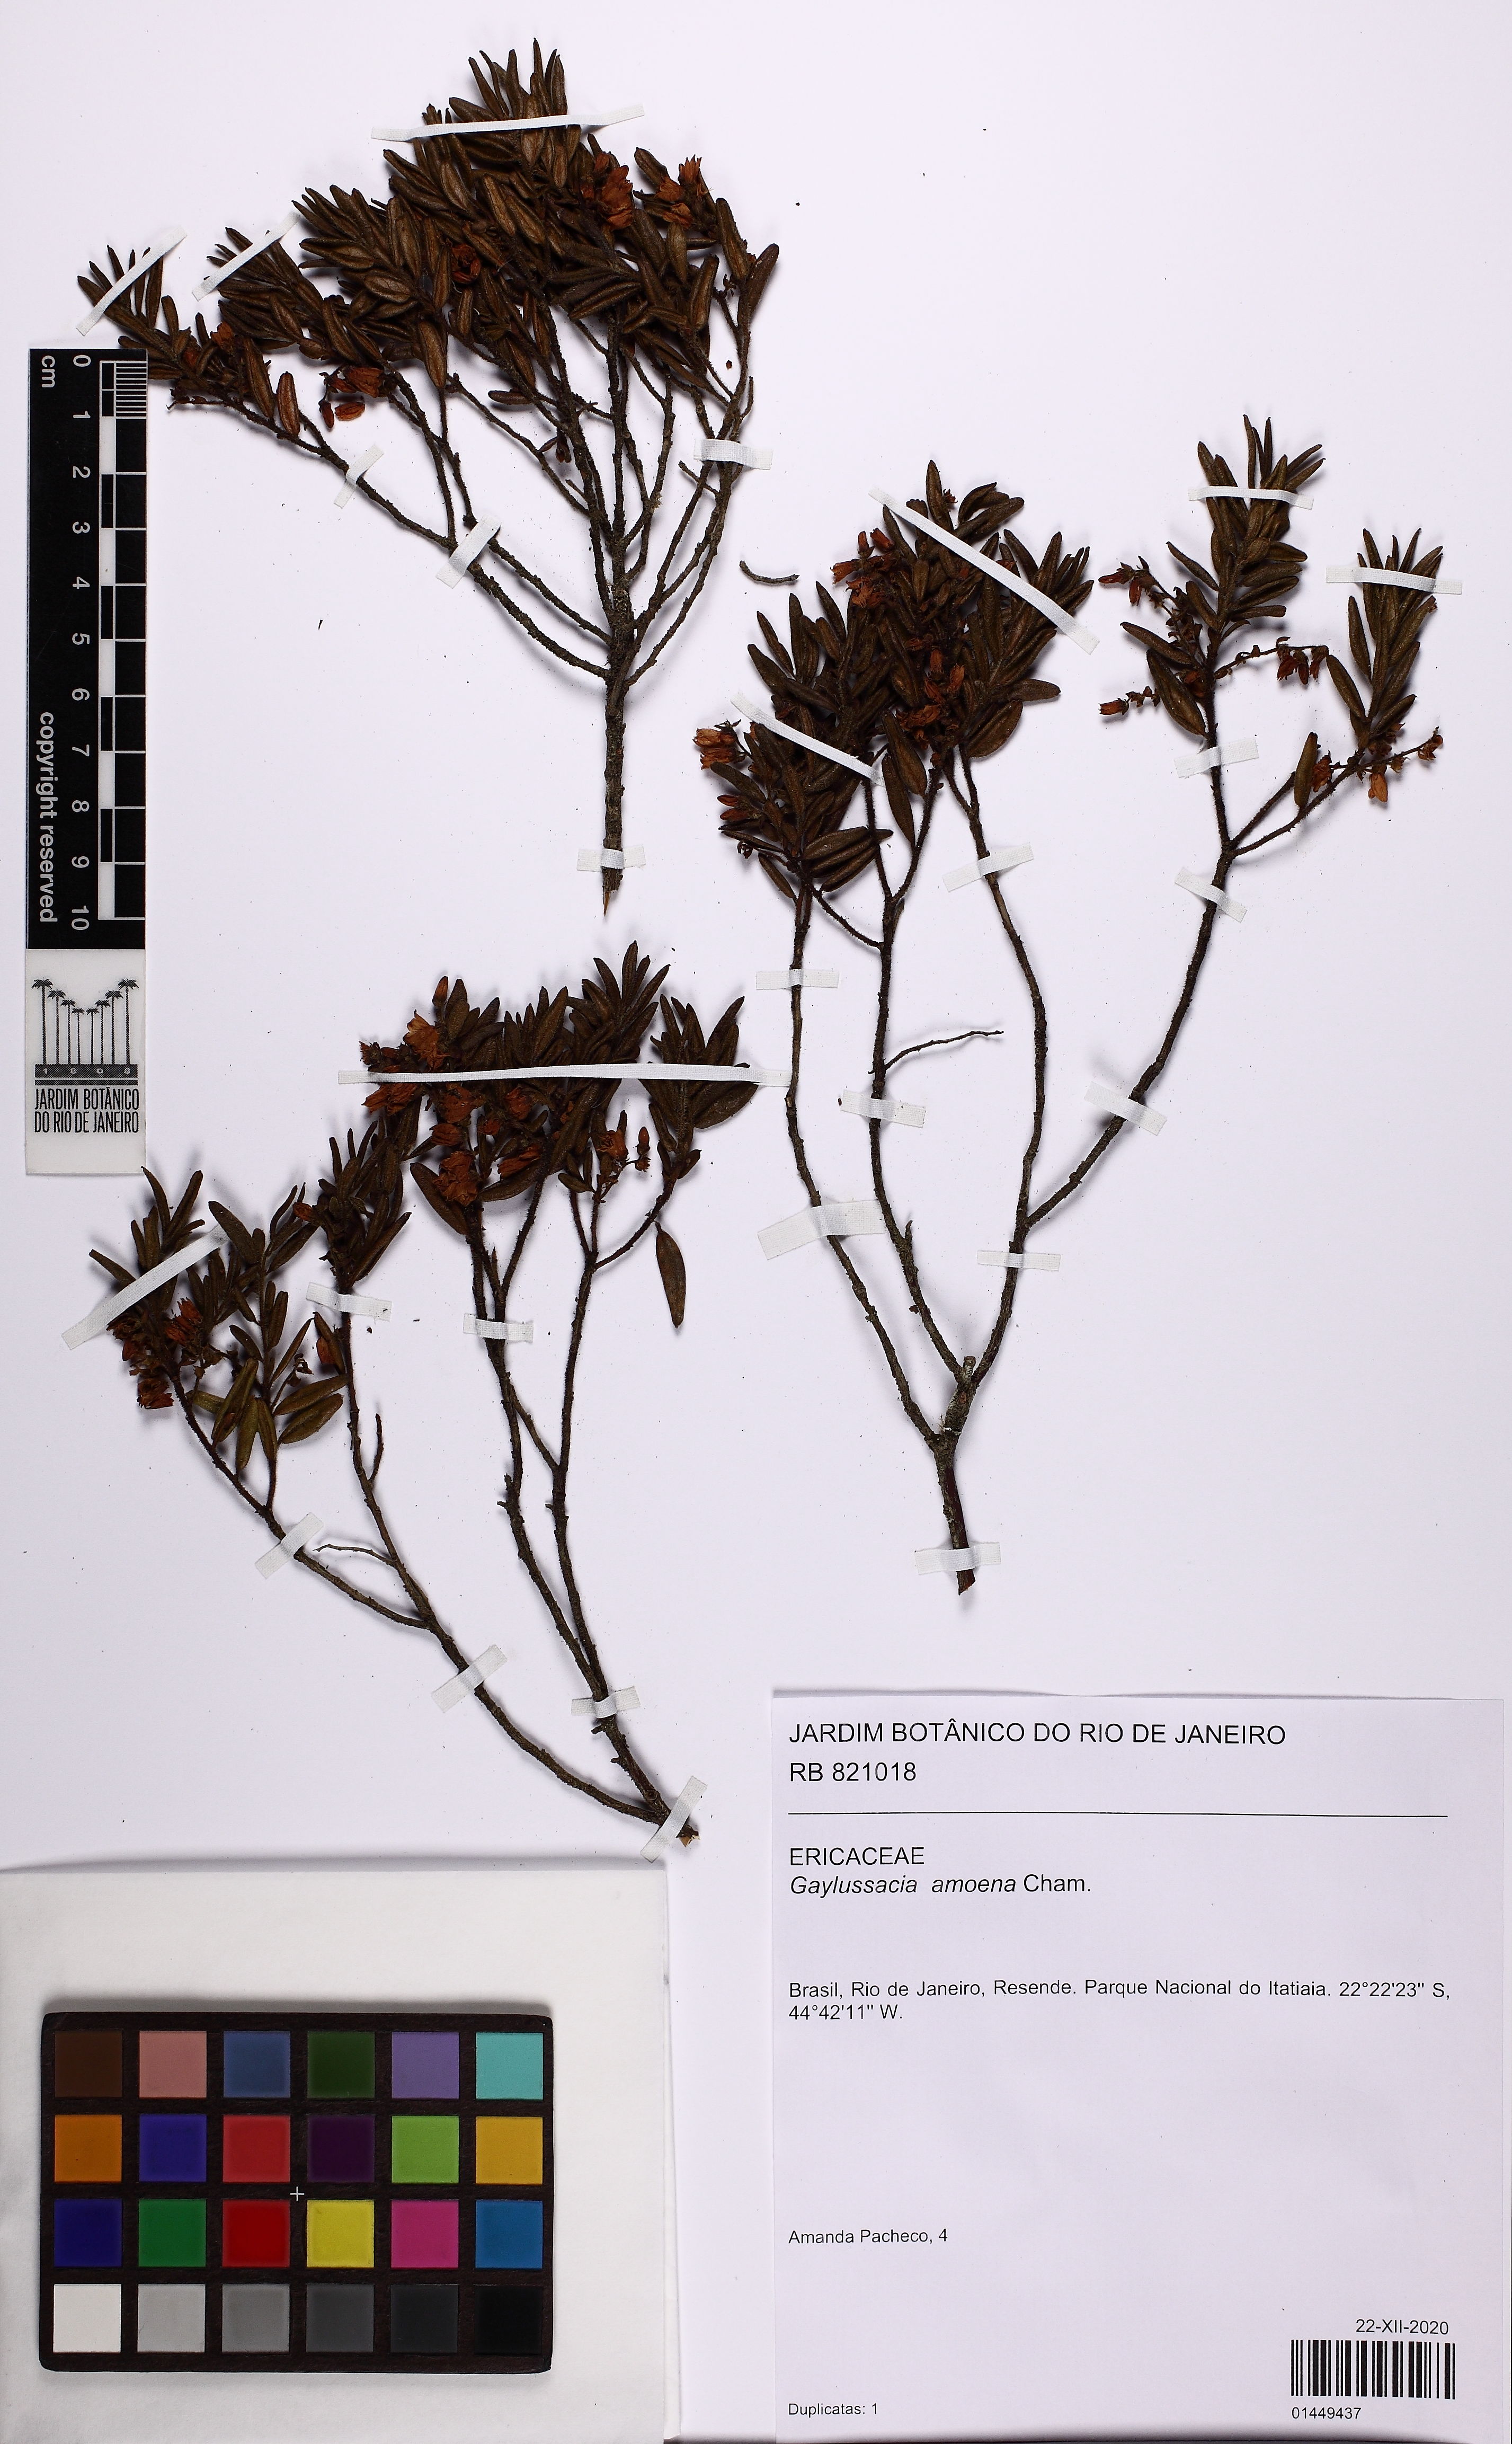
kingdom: Plantae
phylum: Tracheophyta
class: Magnoliopsida
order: Ericales
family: Ericaceae
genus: Gaylussacia
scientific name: Gaylussacia amoena
